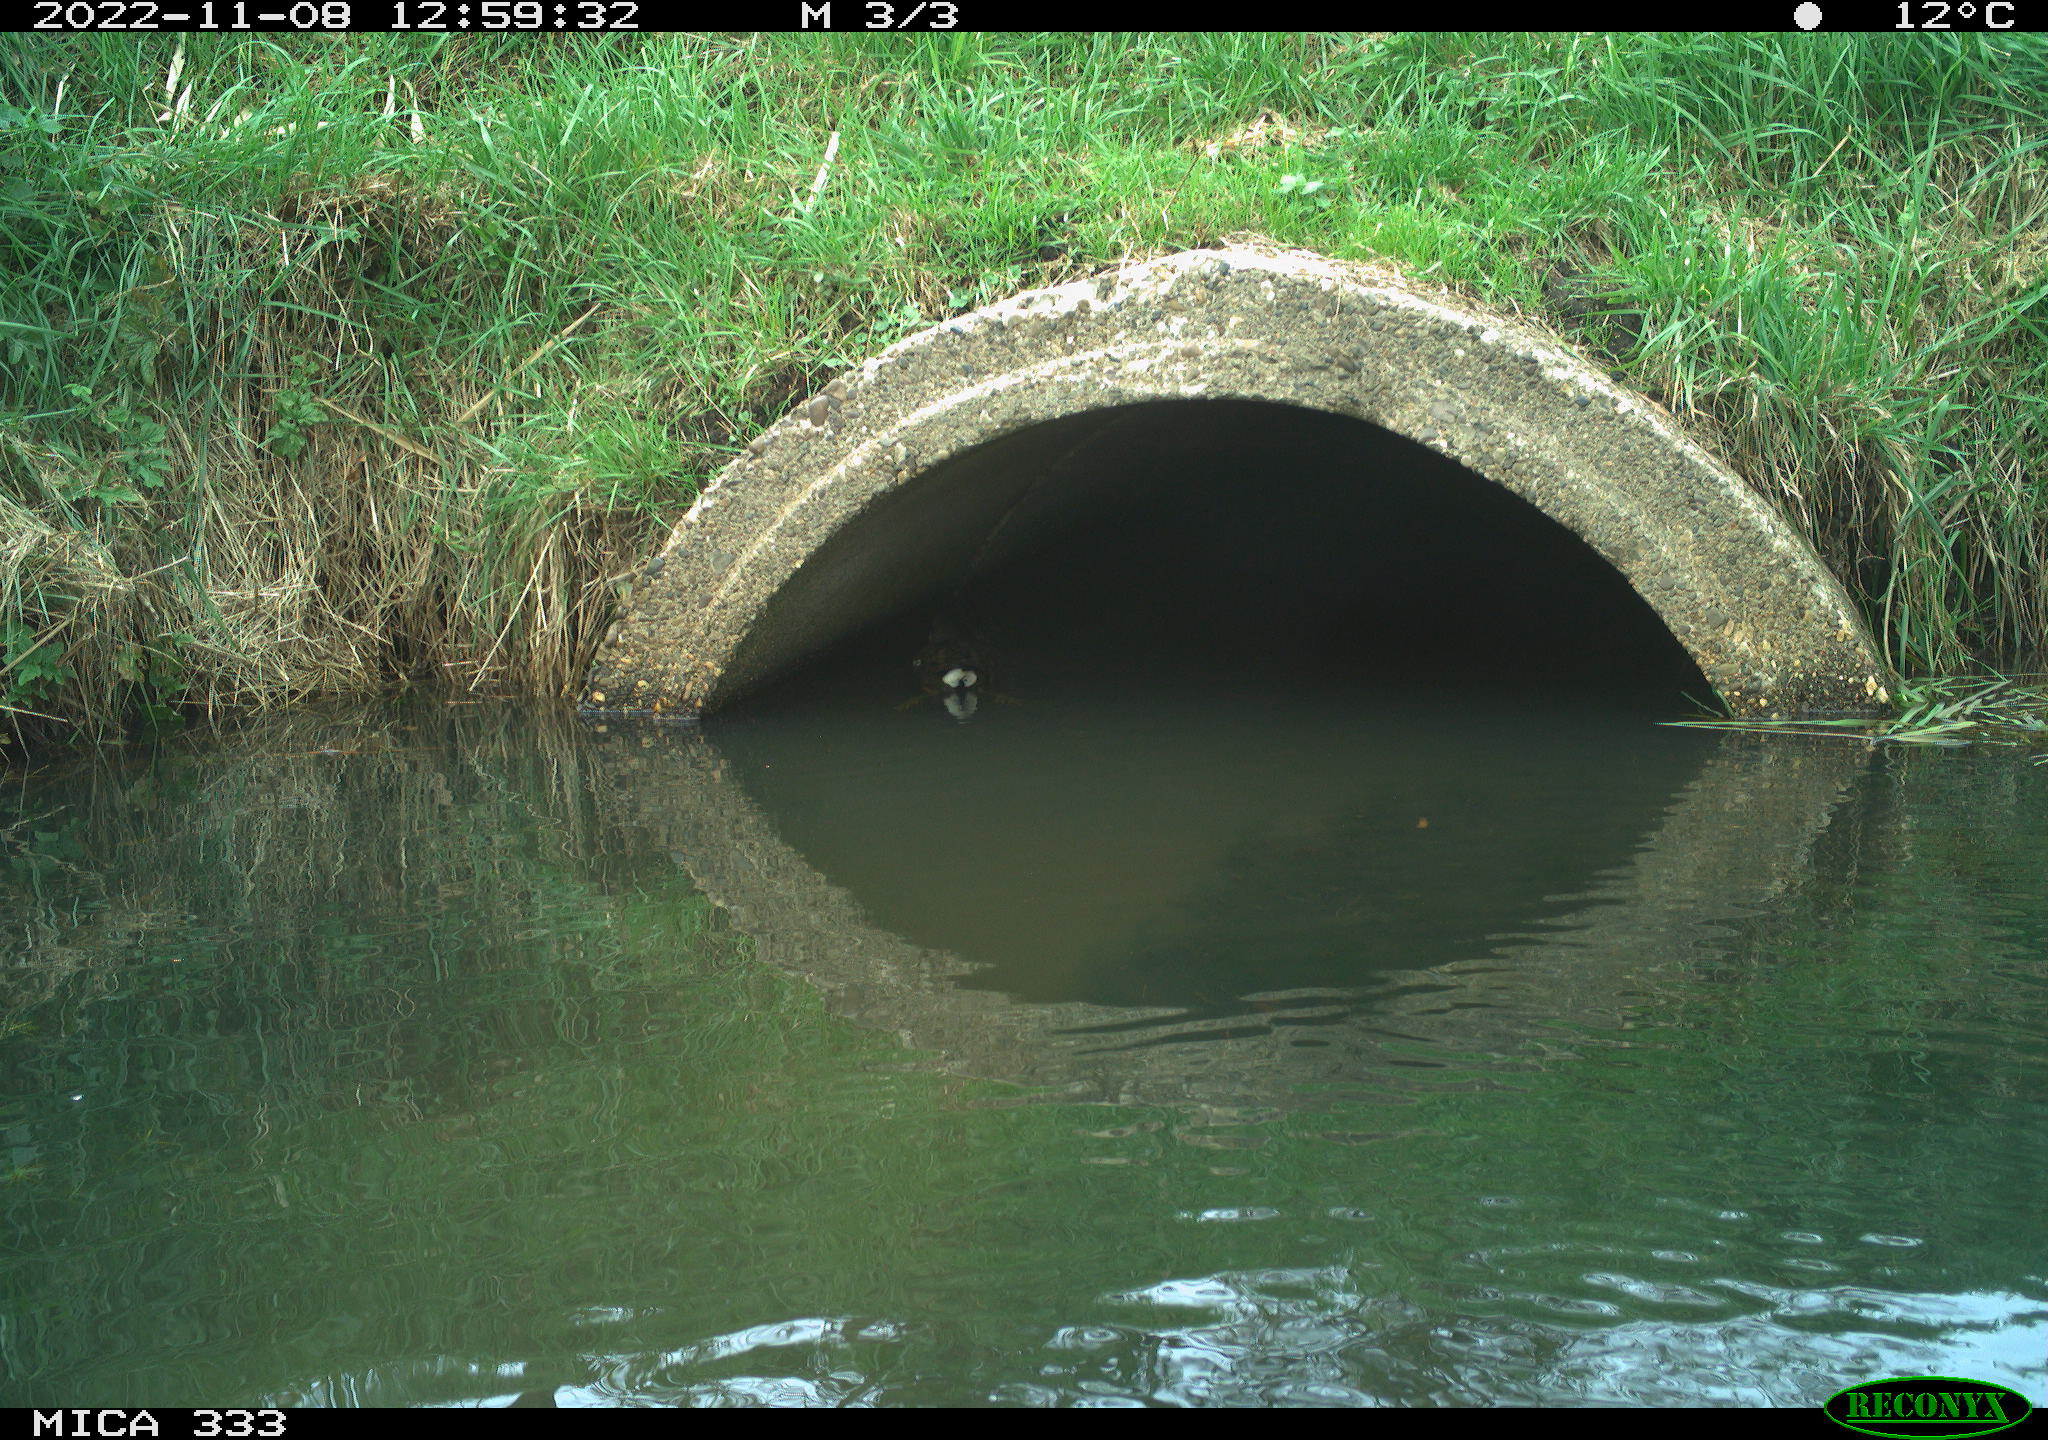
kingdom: Animalia
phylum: Chordata
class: Aves
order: Gruiformes
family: Rallidae
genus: Gallinula
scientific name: Gallinula chloropus
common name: Common moorhen
